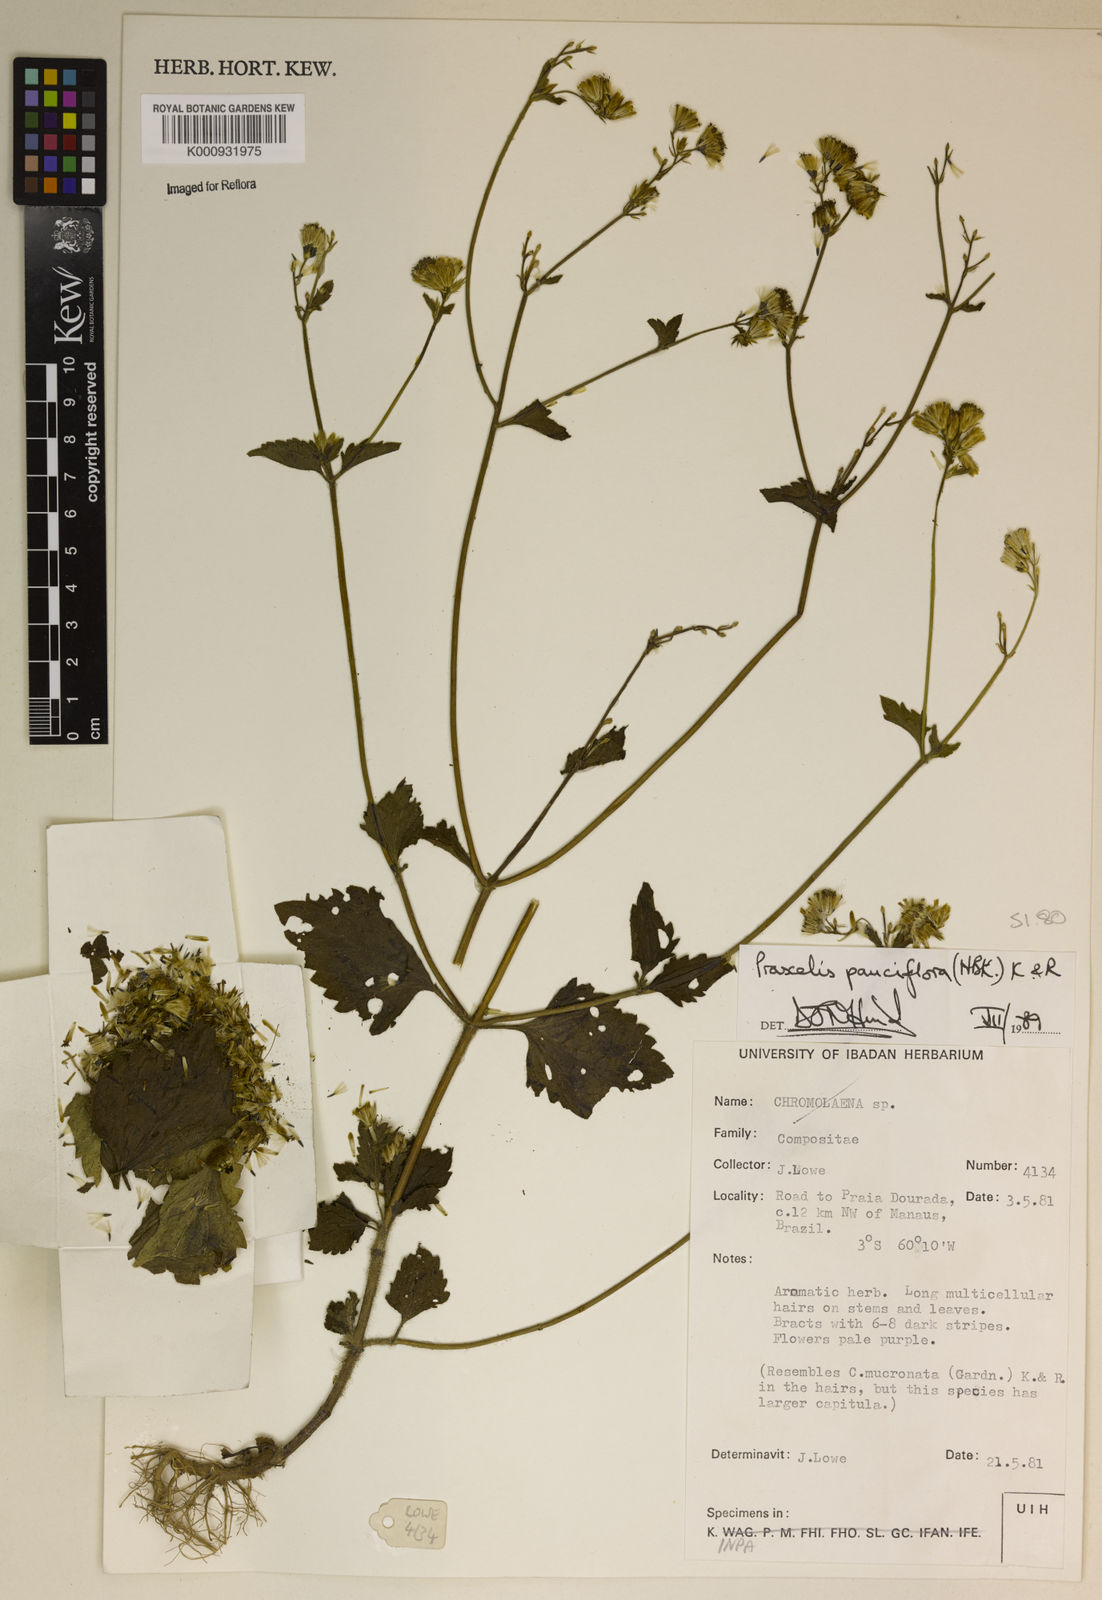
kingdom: Plantae
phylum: Tracheophyta
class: Magnoliopsida
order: Asterales
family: Asteraceae
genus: Praxelis
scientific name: Praxelis diffusa
